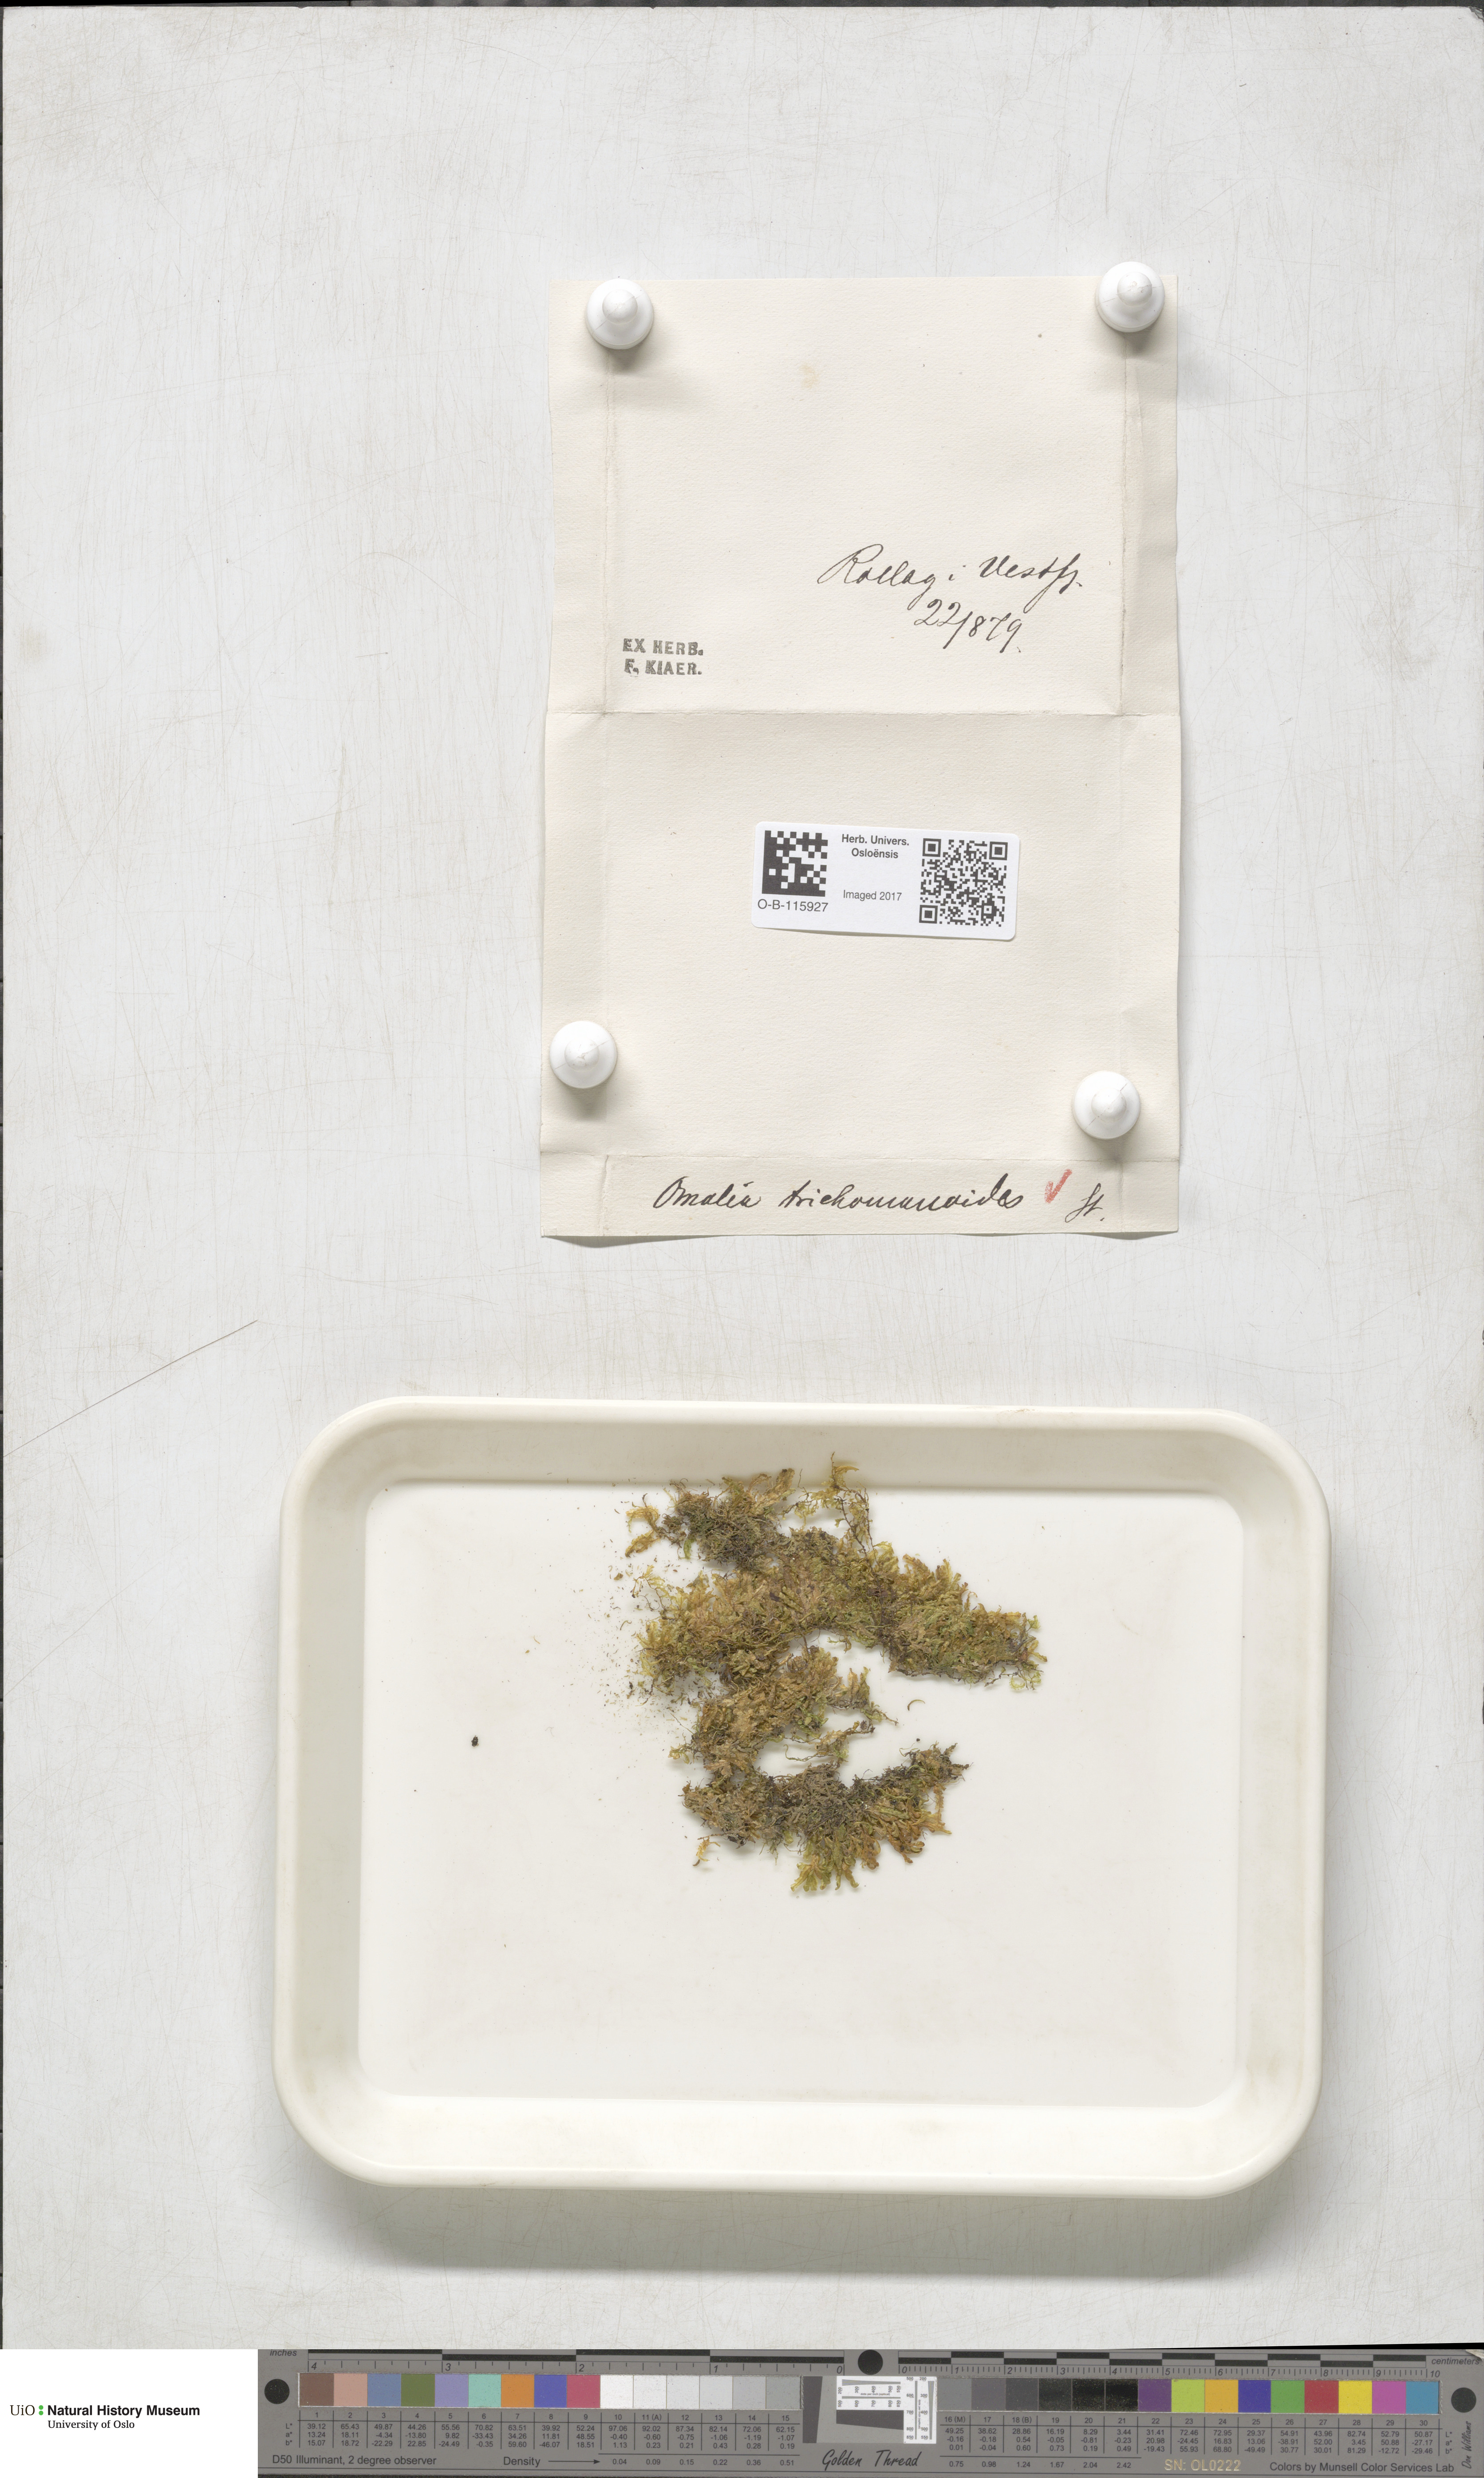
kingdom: Plantae
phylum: Bryophyta
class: Bryopsida
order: Hypnales
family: Neckeraceae
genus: Homalia
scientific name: Homalia trichomanoides
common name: Lime homalia moss
